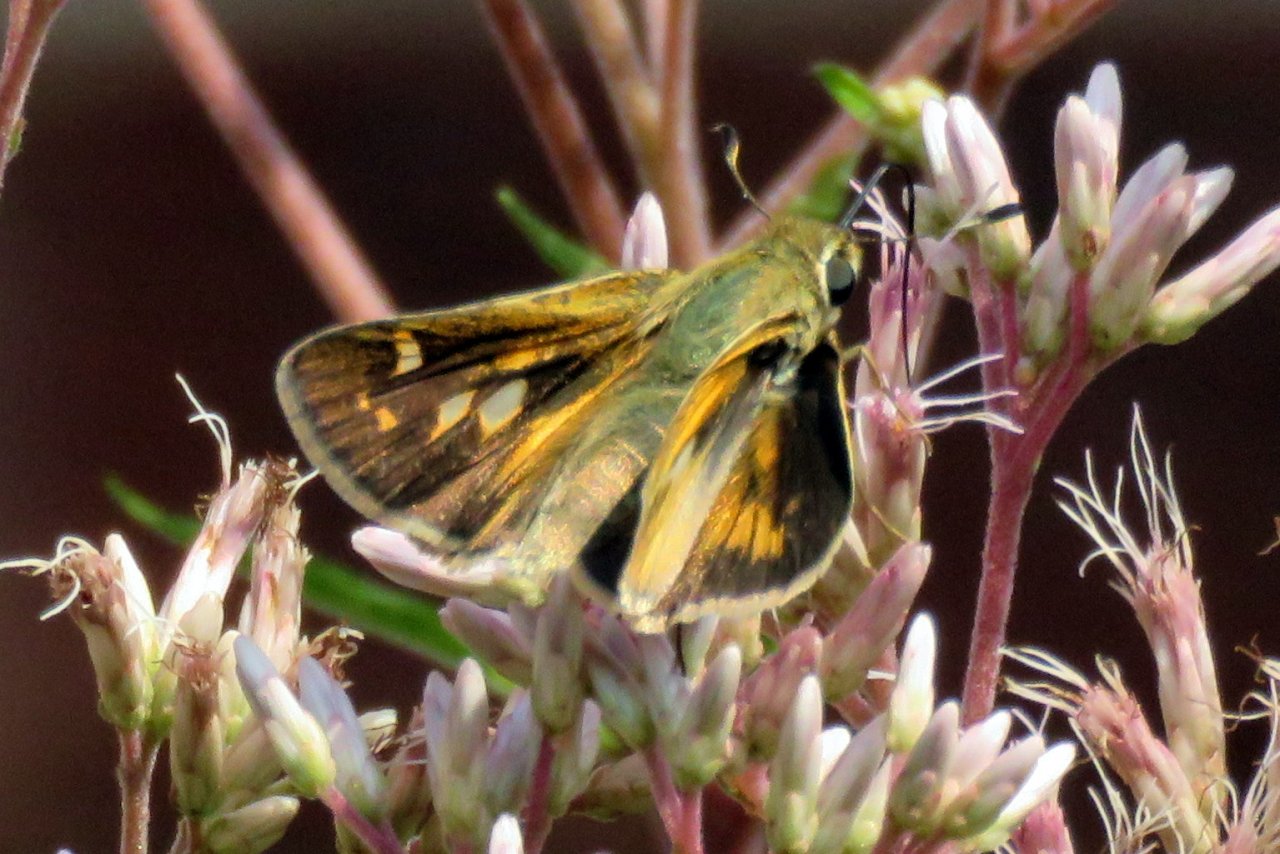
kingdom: Animalia
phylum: Arthropoda
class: Insecta
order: Lepidoptera
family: Hesperiidae
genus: Polites
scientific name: Polites
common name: Crossline Skipper
